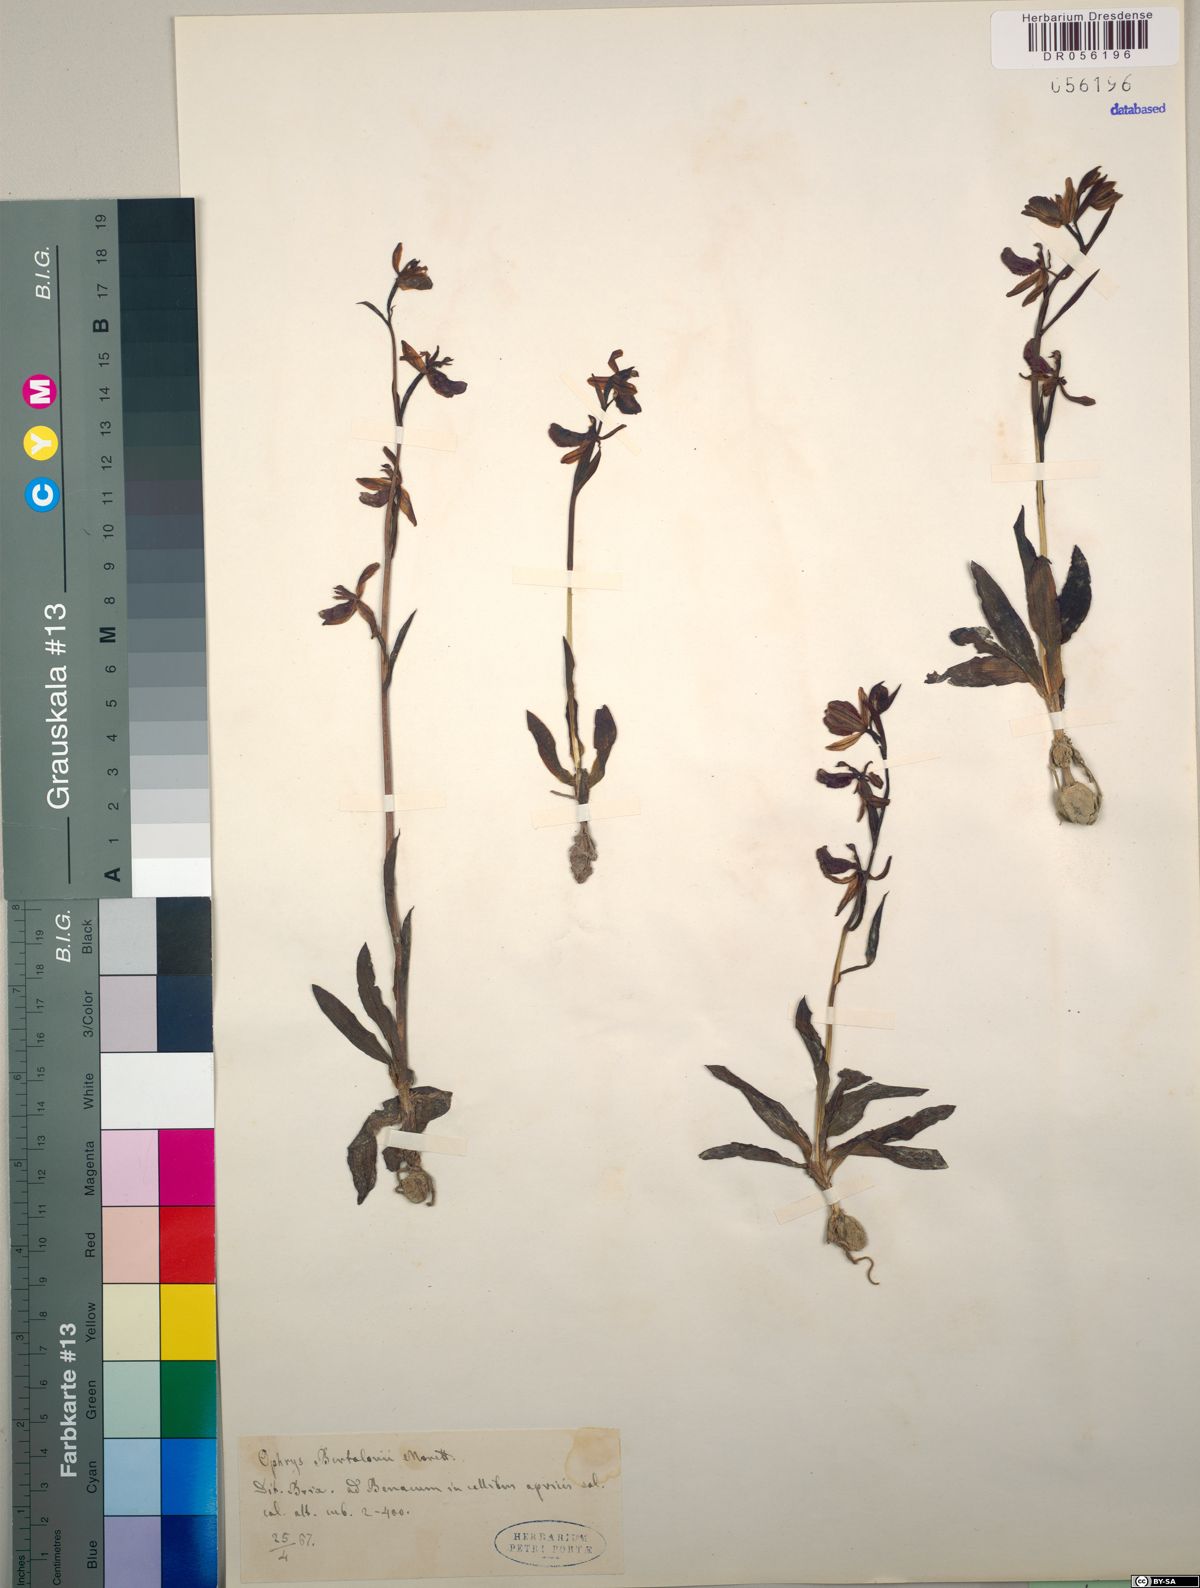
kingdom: Plantae
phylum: Tracheophyta
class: Liliopsida
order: Asparagales
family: Orchidaceae
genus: Ophrys
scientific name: Ophrys bertolonii
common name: Bertoloni's bee orchid
